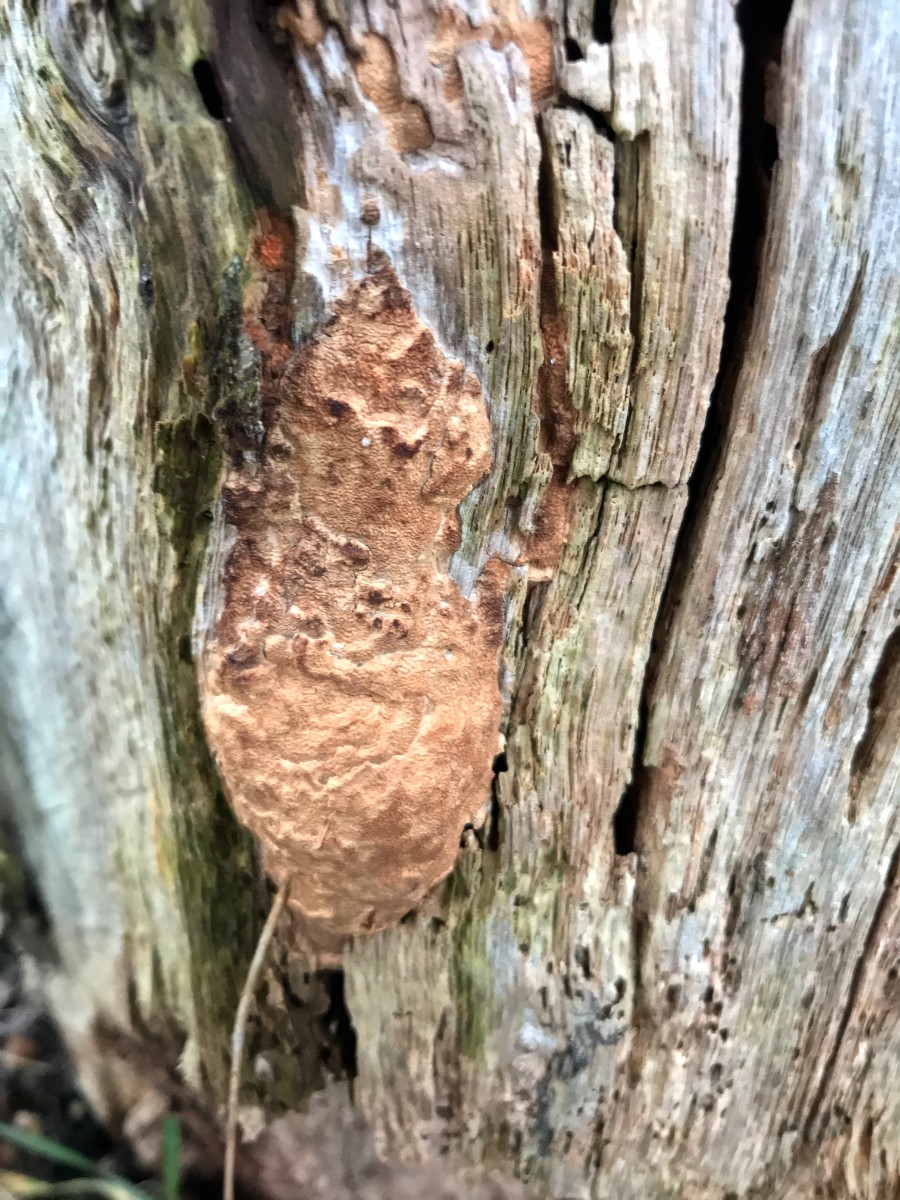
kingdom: Fungi
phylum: Basidiomycota
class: Agaricomycetes
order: Hymenochaetales
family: Hymenochaetaceae
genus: Fuscoporia
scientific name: Fuscoporia
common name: Ildporesvamp
